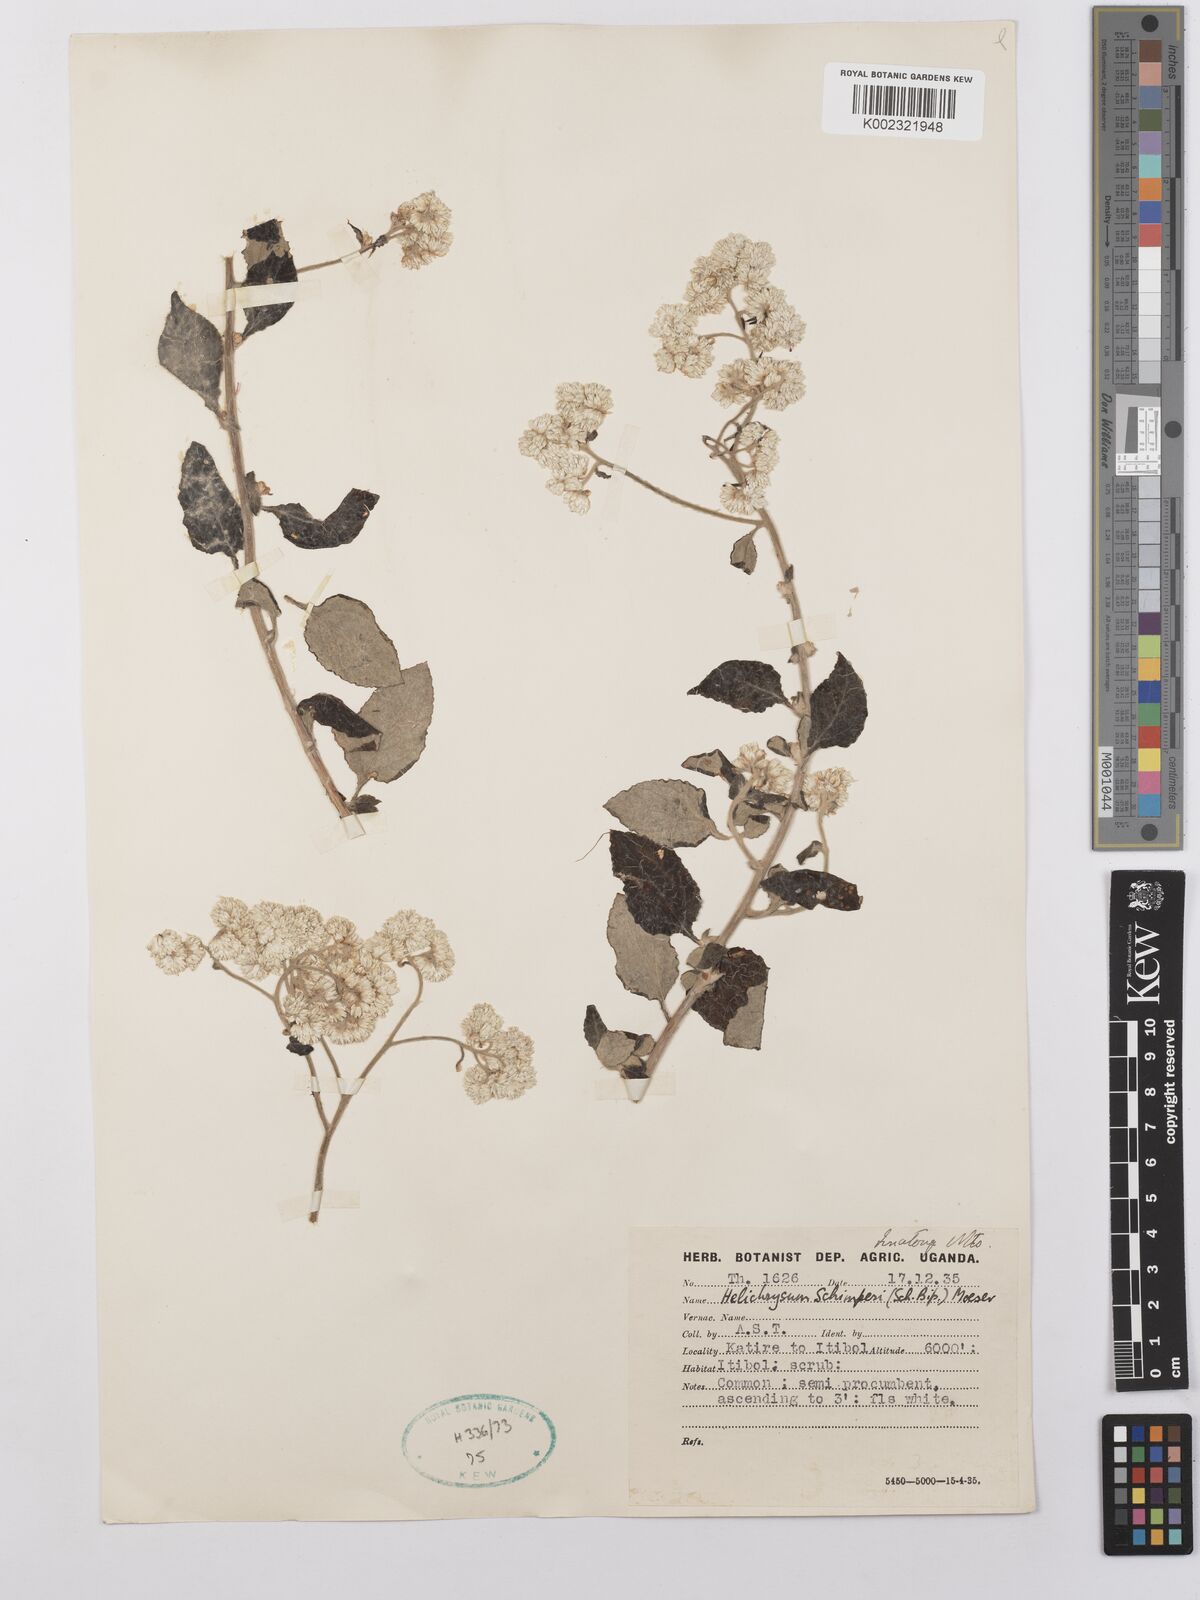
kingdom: Plantae
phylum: Tracheophyta
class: Magnoliopsida
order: Asterales
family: Asteraceae
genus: Helichrysum
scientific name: Helichrysum schimperi
